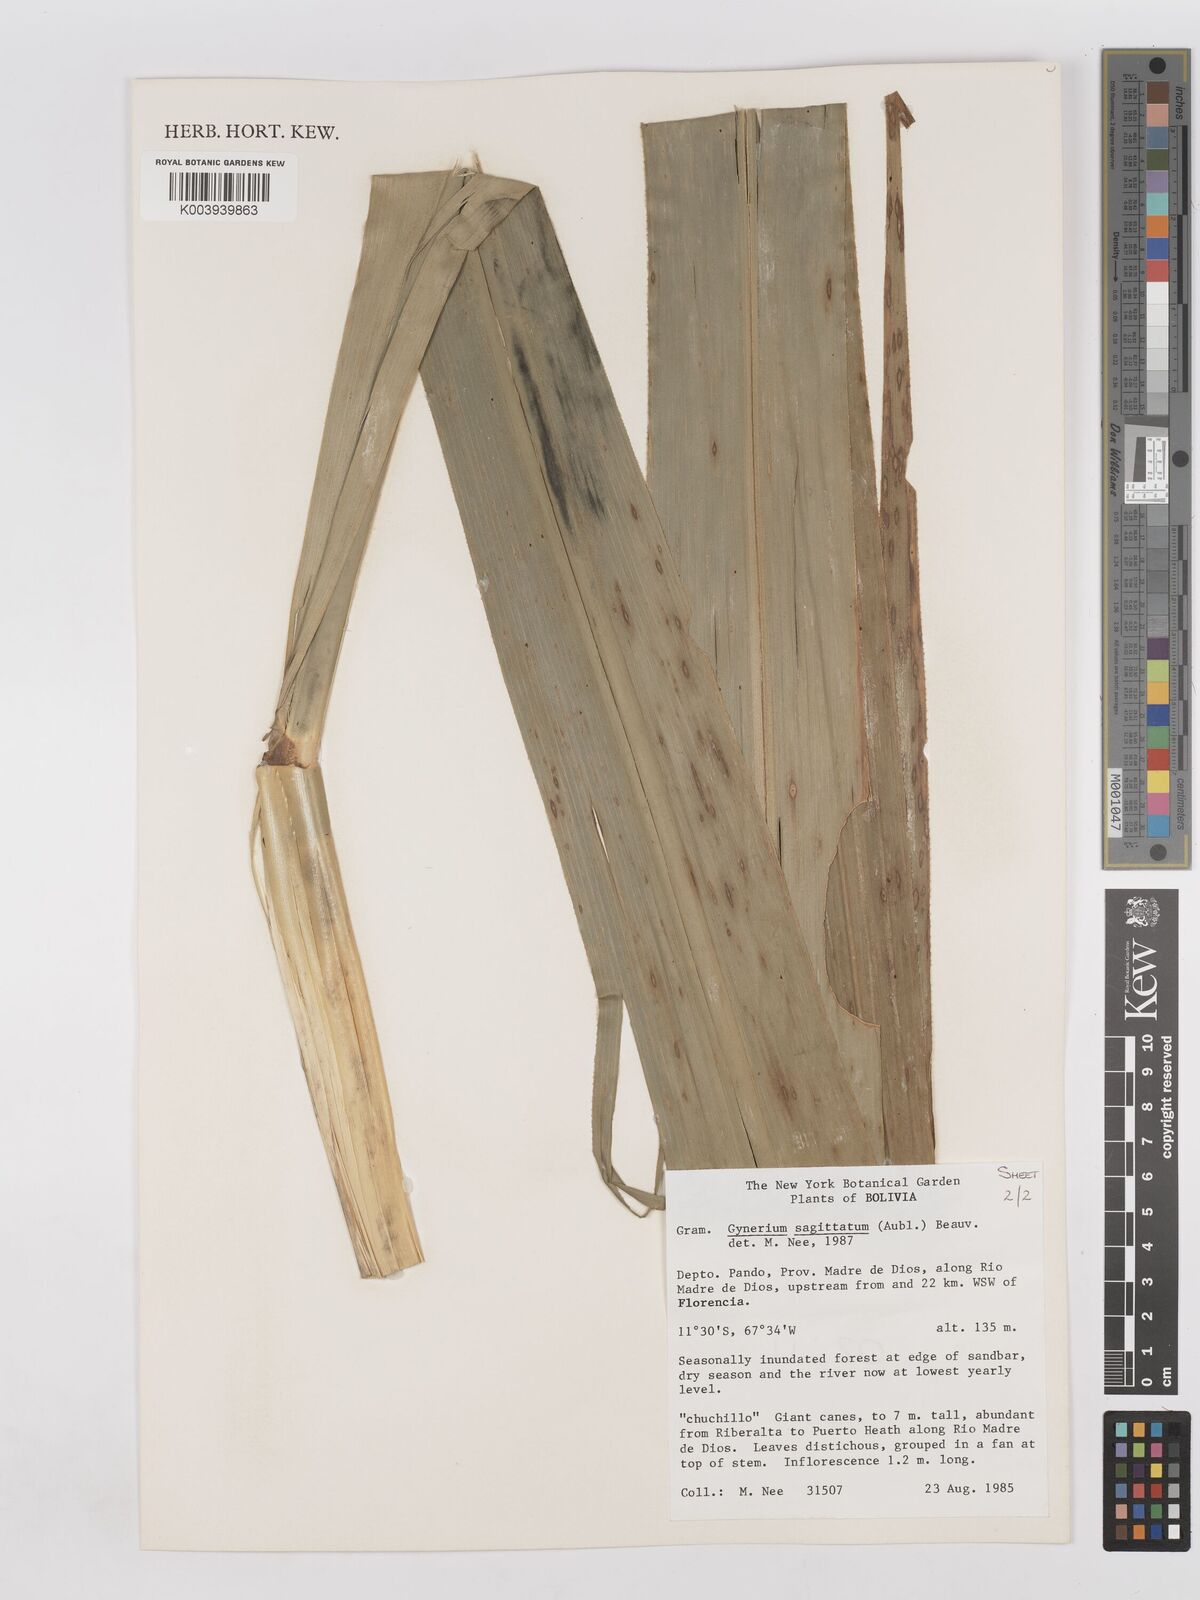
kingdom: Plantae
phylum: Tracheophyta
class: Liliopsida
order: Poales
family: Poaceae
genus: Gynerium
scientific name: Gynerium sagittatum
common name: Wild cane
